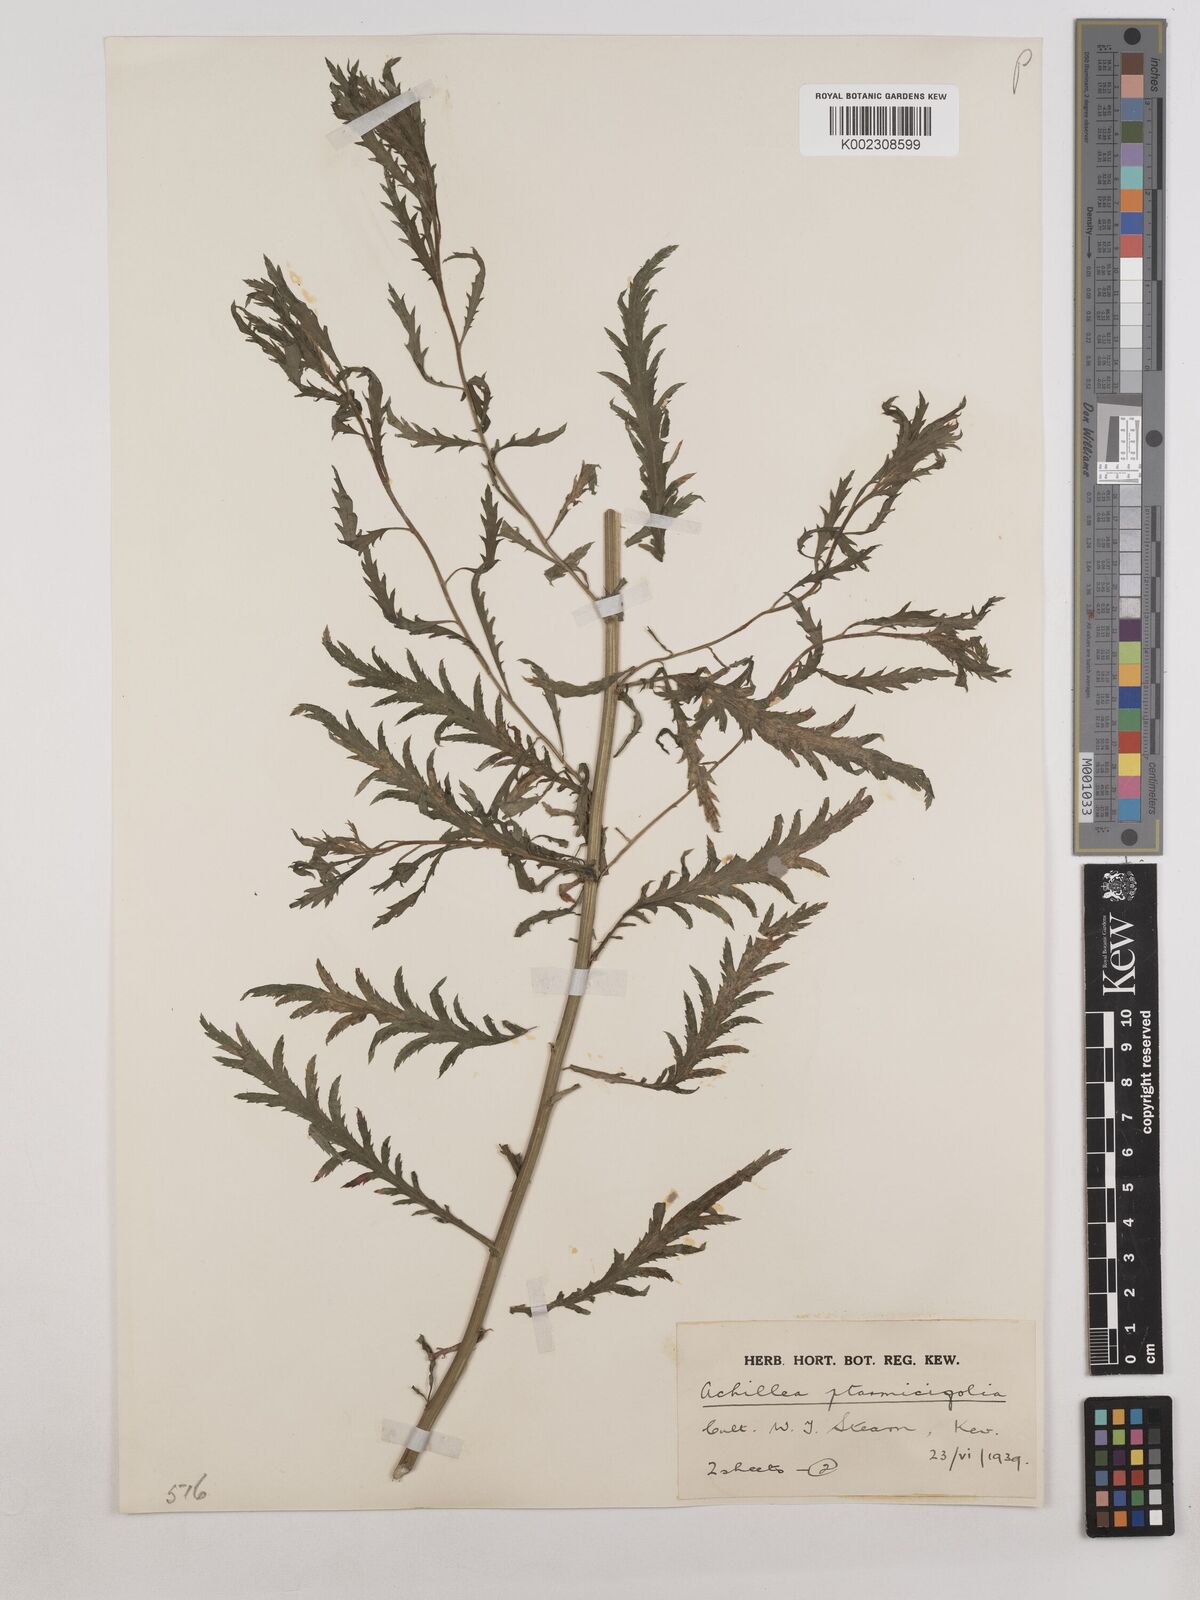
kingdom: Plantae
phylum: Tracheophyta
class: Magnoliopsida
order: Asterales
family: Asteraceae
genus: Achillea
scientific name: Achillea ptarmica
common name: Sneezeweed
